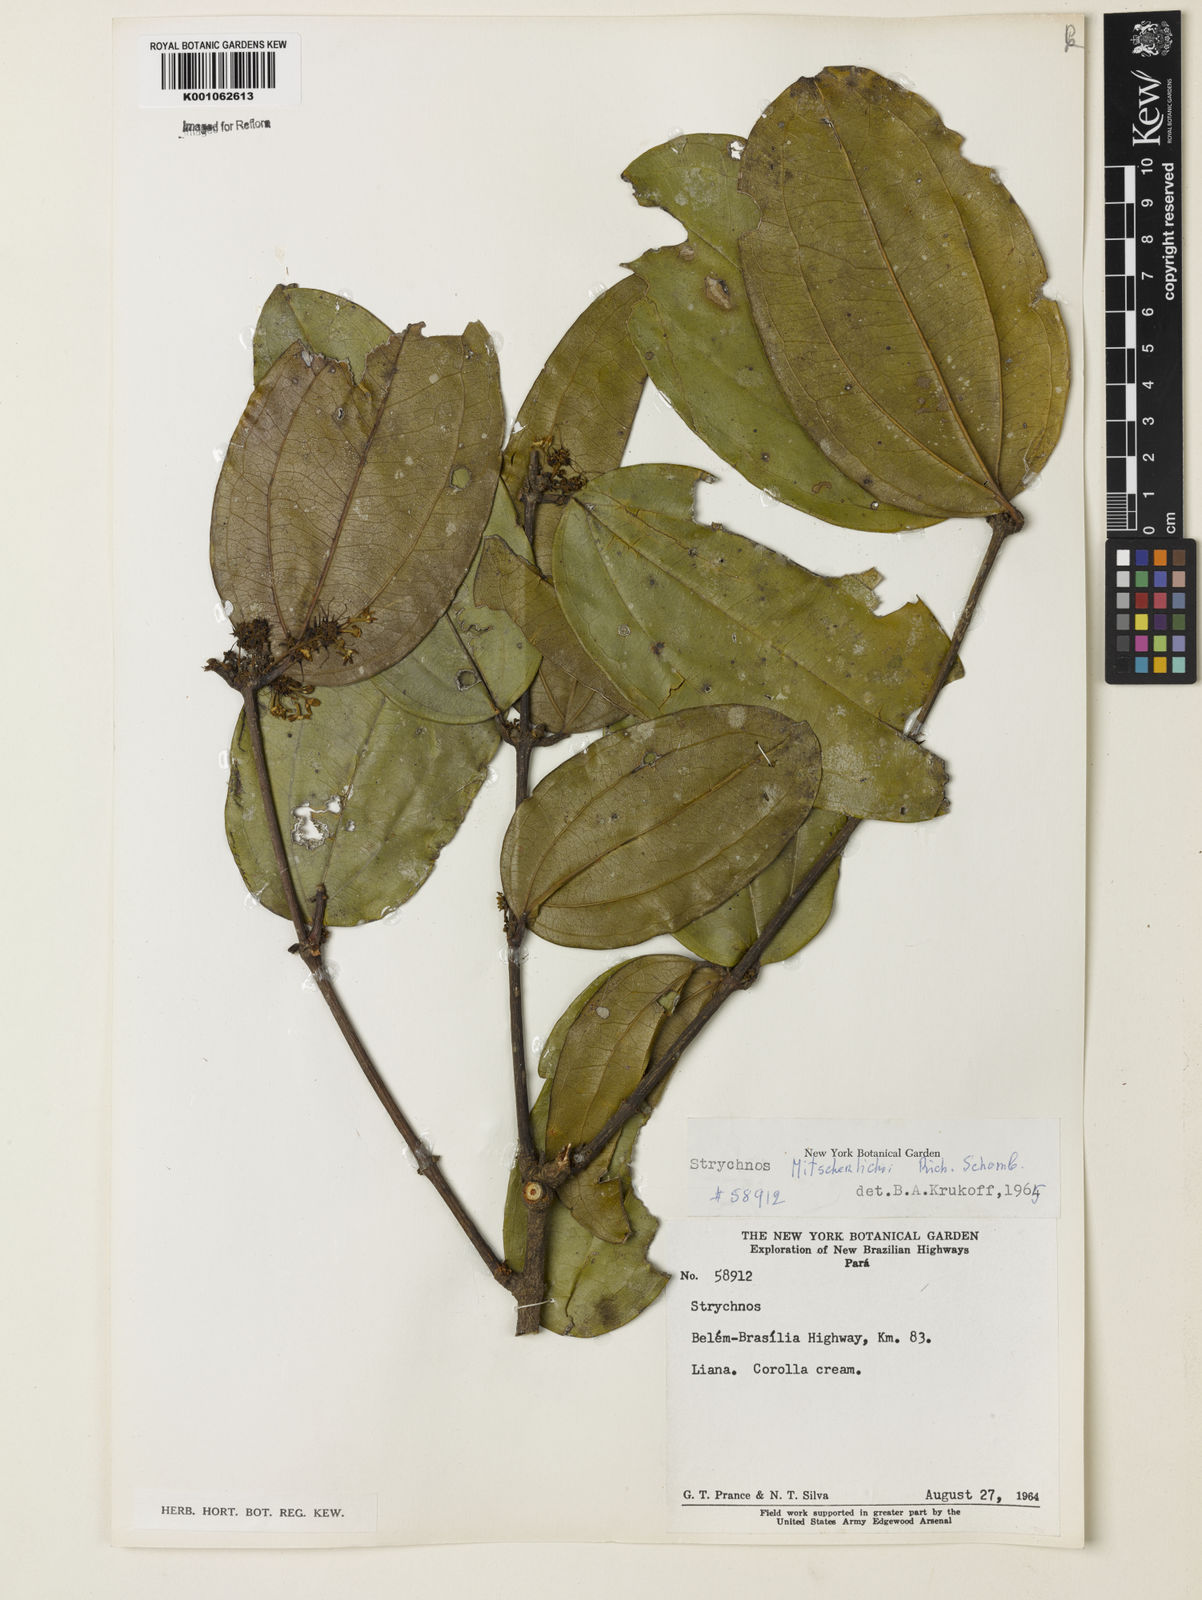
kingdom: Plantae
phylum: Tracheophyta
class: Magnoliopsida
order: Gentianales
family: Loganiaceae
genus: Strychnos
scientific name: Strychnos mitscherlichii
